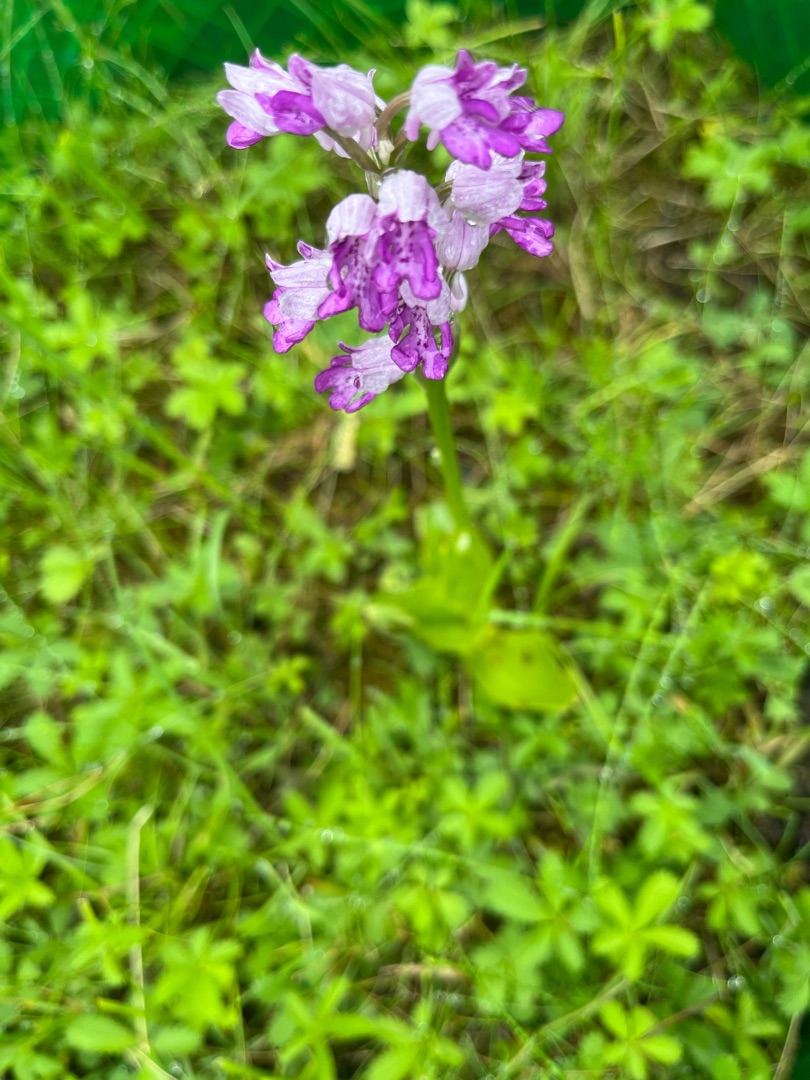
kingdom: Plantae
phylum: Tracheophyta
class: Liliopsida
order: Asparagales
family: Orchidaceae
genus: Orchis
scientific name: Orchis militaris
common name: Ridder-gøgeurt
